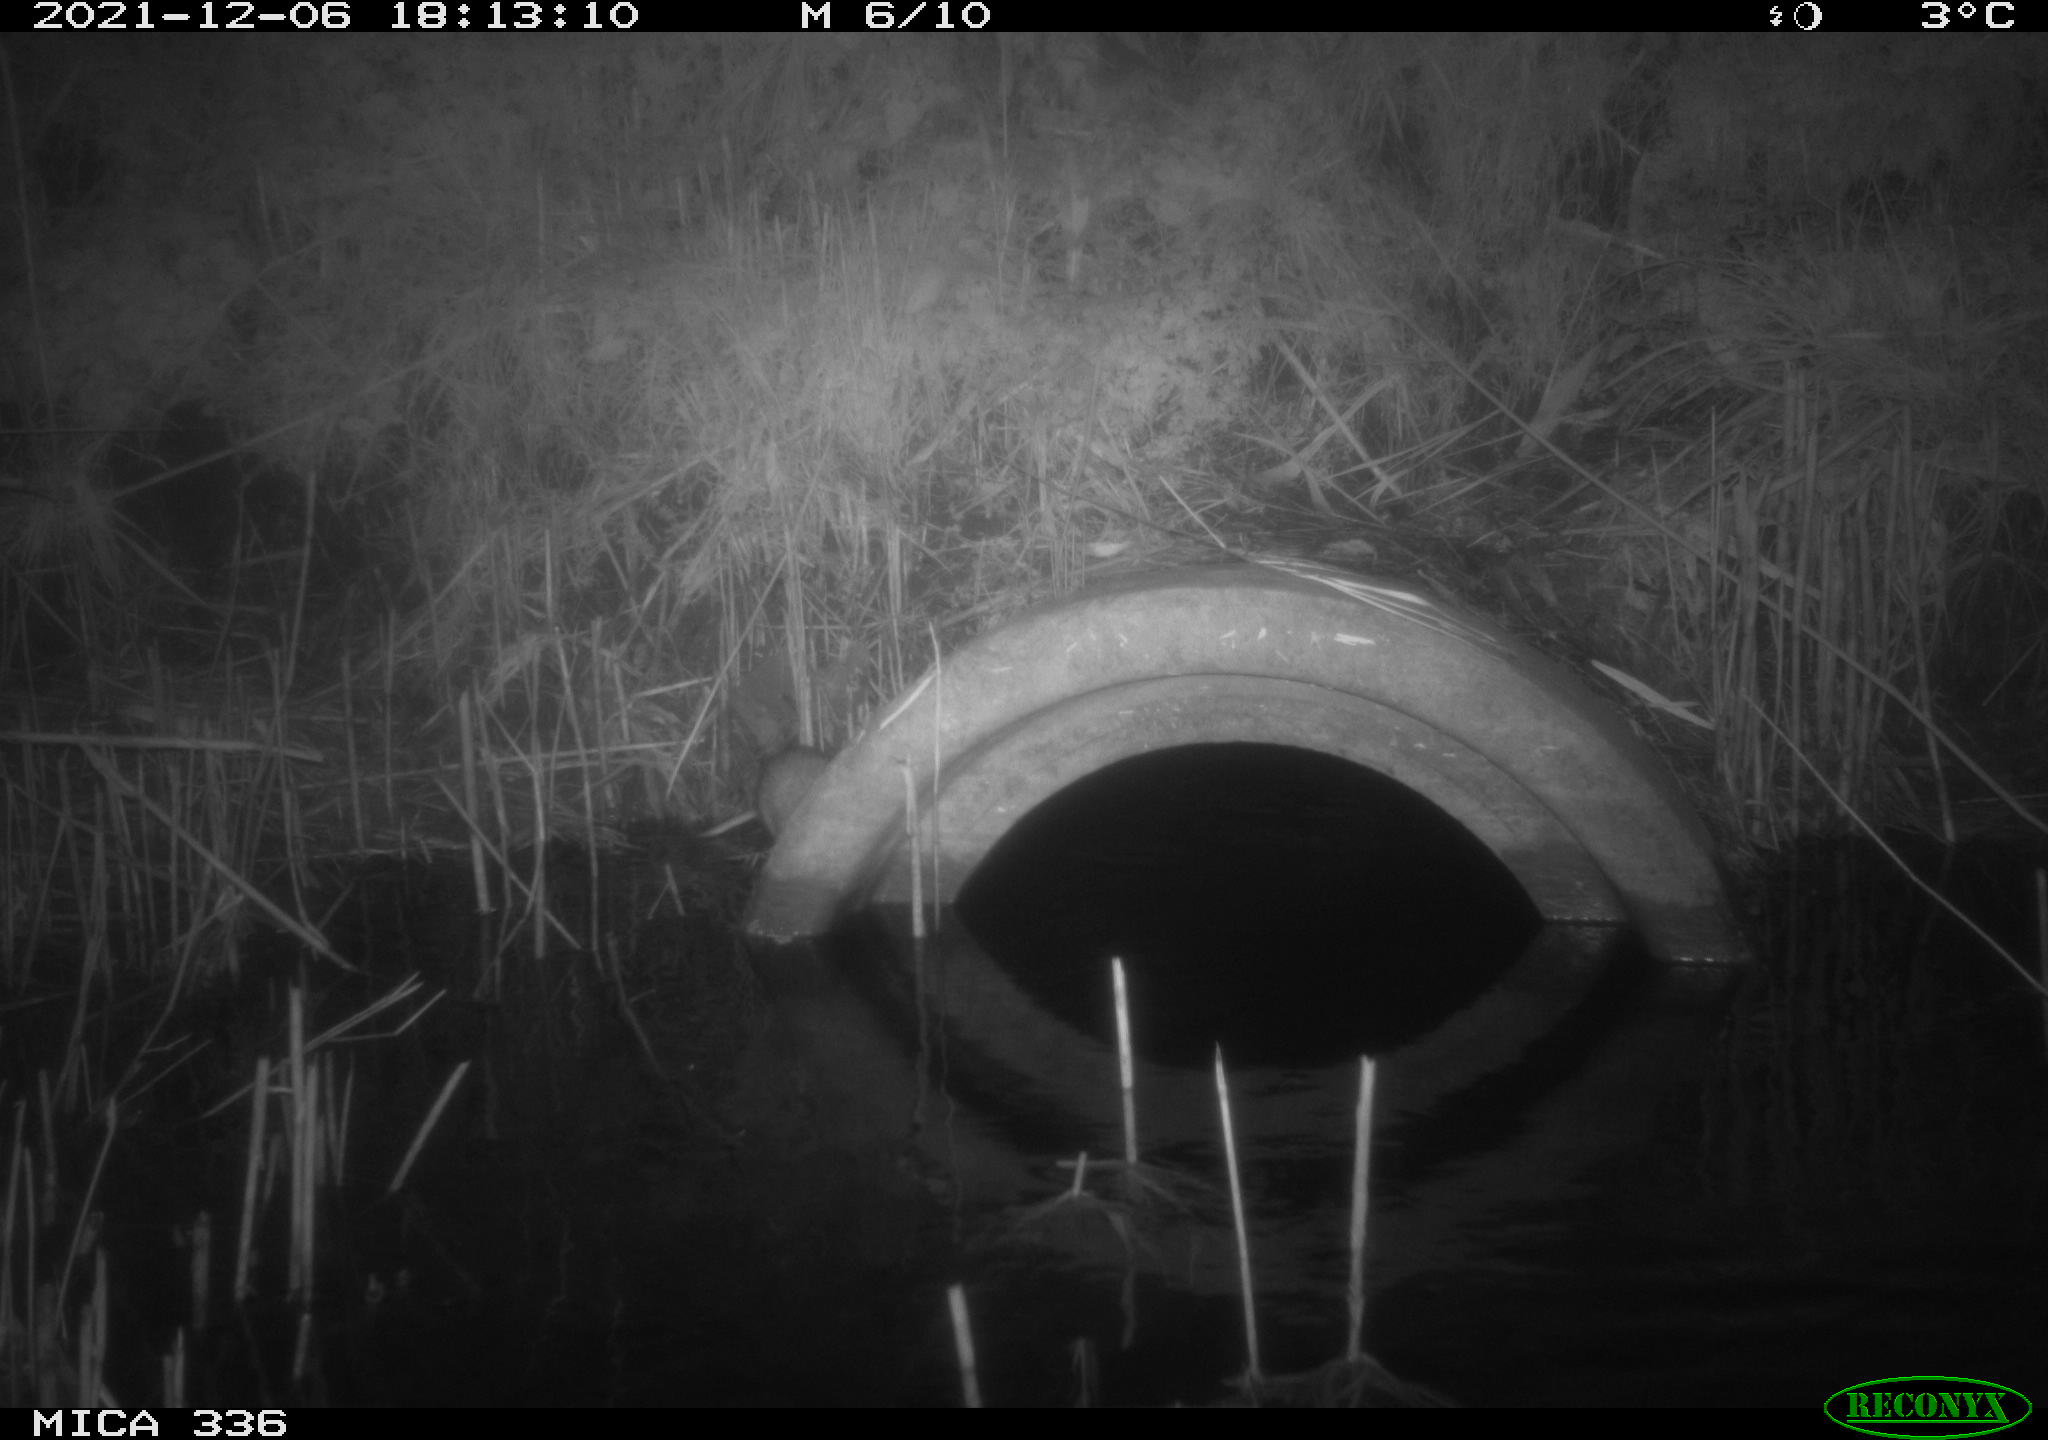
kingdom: Animalia
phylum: Chordata
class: Mammalia
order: Rodentia
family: Muridae
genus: Rattus
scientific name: Rattus norvegicus
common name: Brown rat
